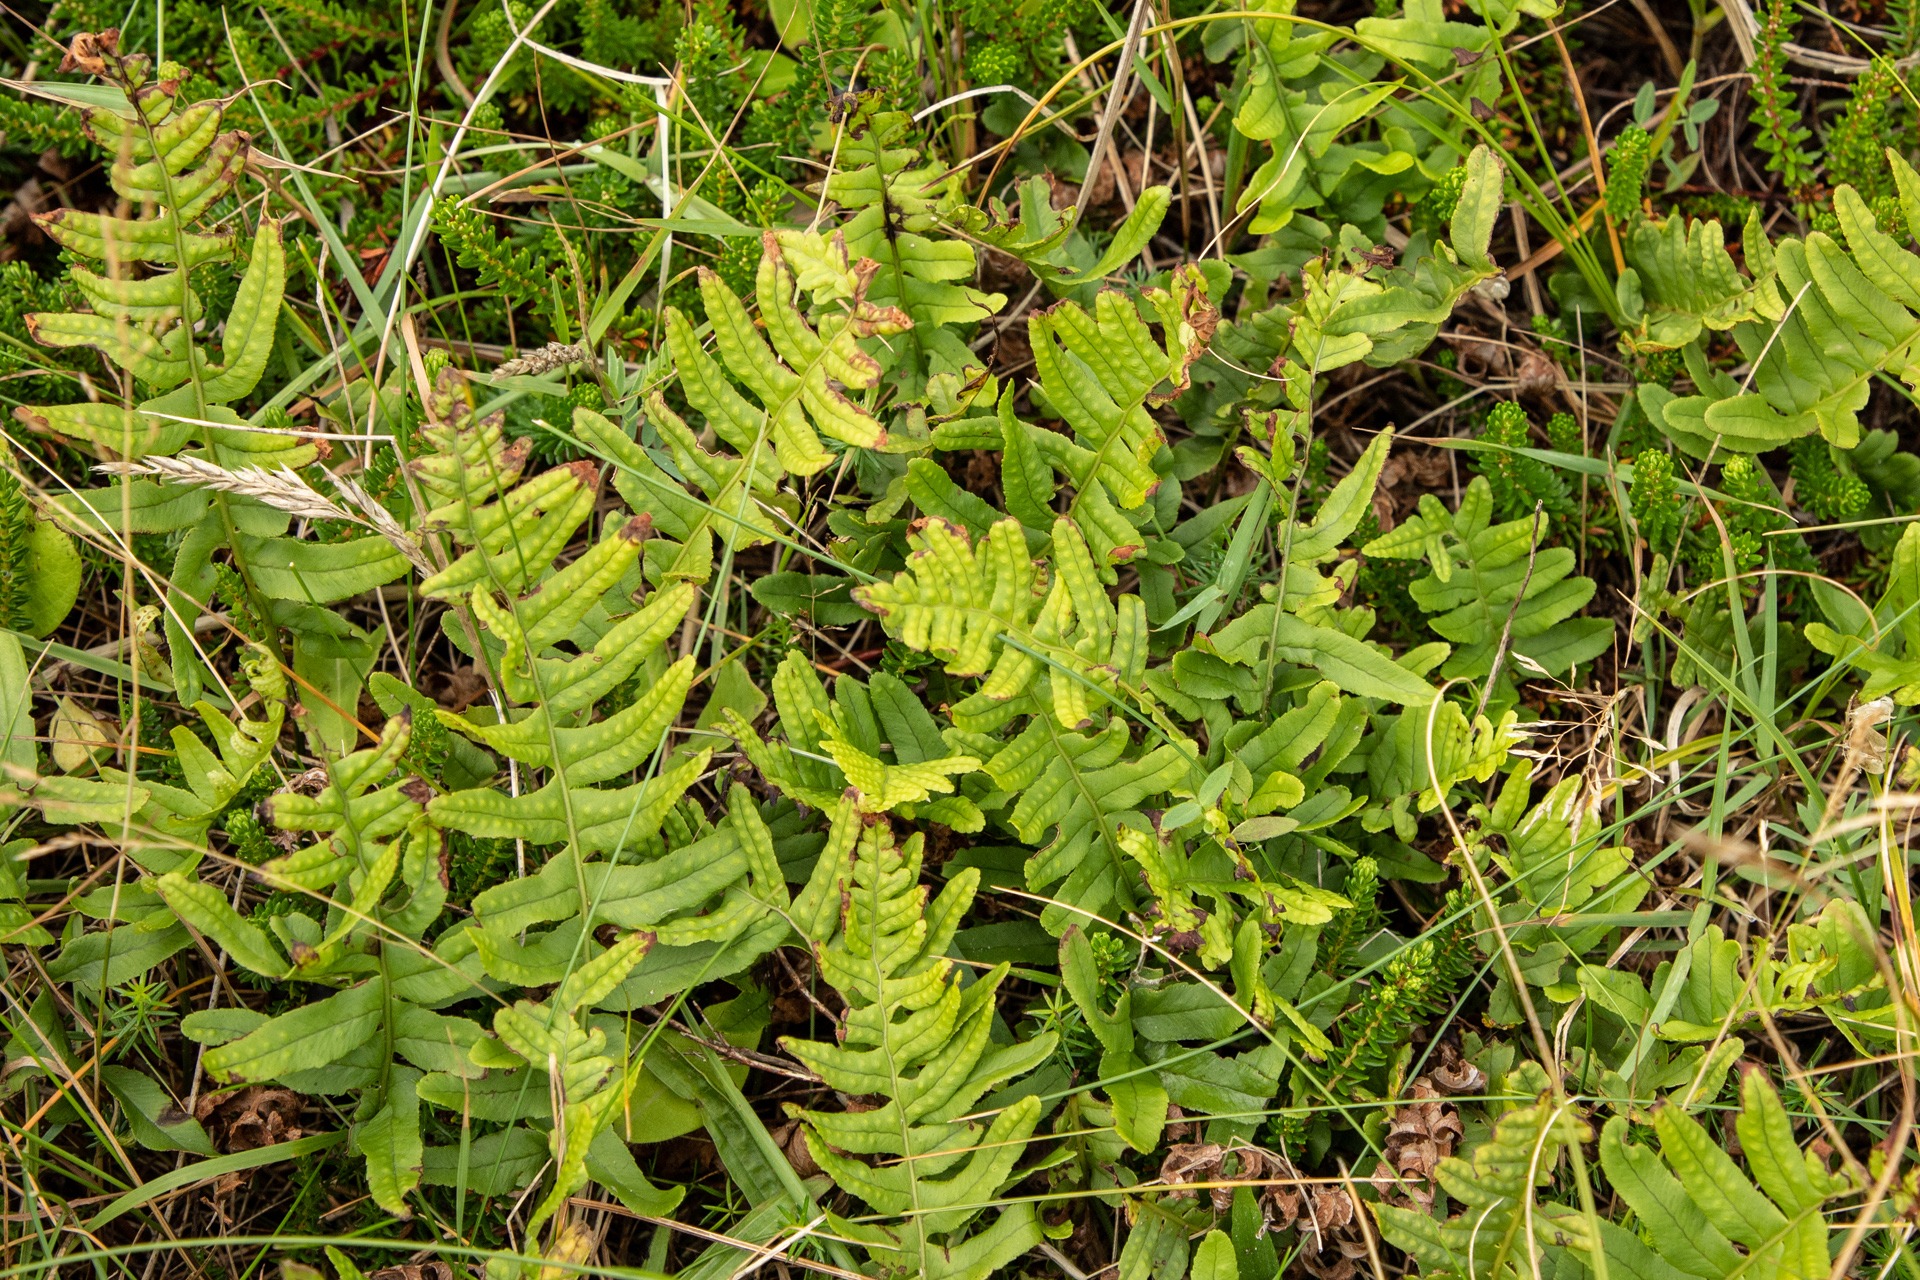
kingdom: Plantae
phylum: Tracheophyta
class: Polypodiopsida
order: Polypodiales
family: Polypodiaceae
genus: Polypodium
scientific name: Polypodium vulgare
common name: Almindelig engelsød
